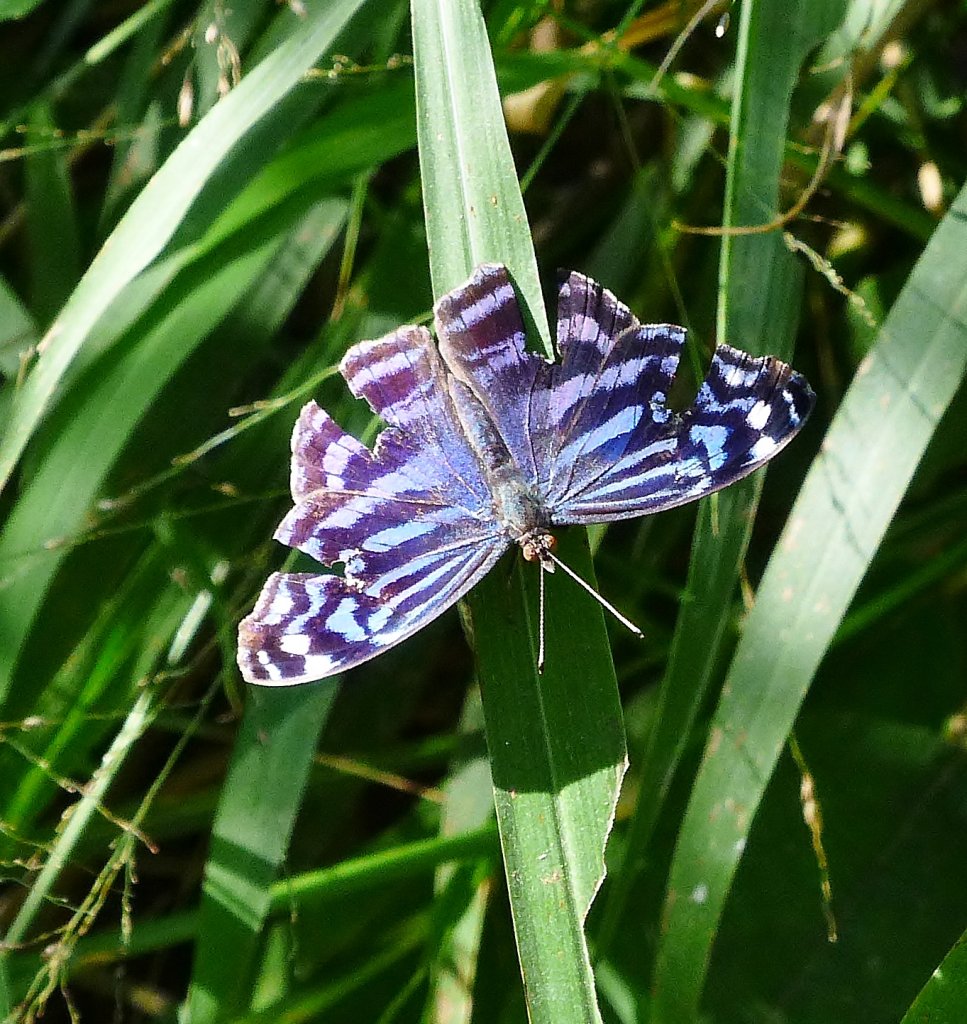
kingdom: Animalia
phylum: Arthropoda
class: Insecta
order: Lepidoptera
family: Nymphalidae
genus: Myscelia
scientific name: Myscelia ethusa
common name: Mexican Bluewing
